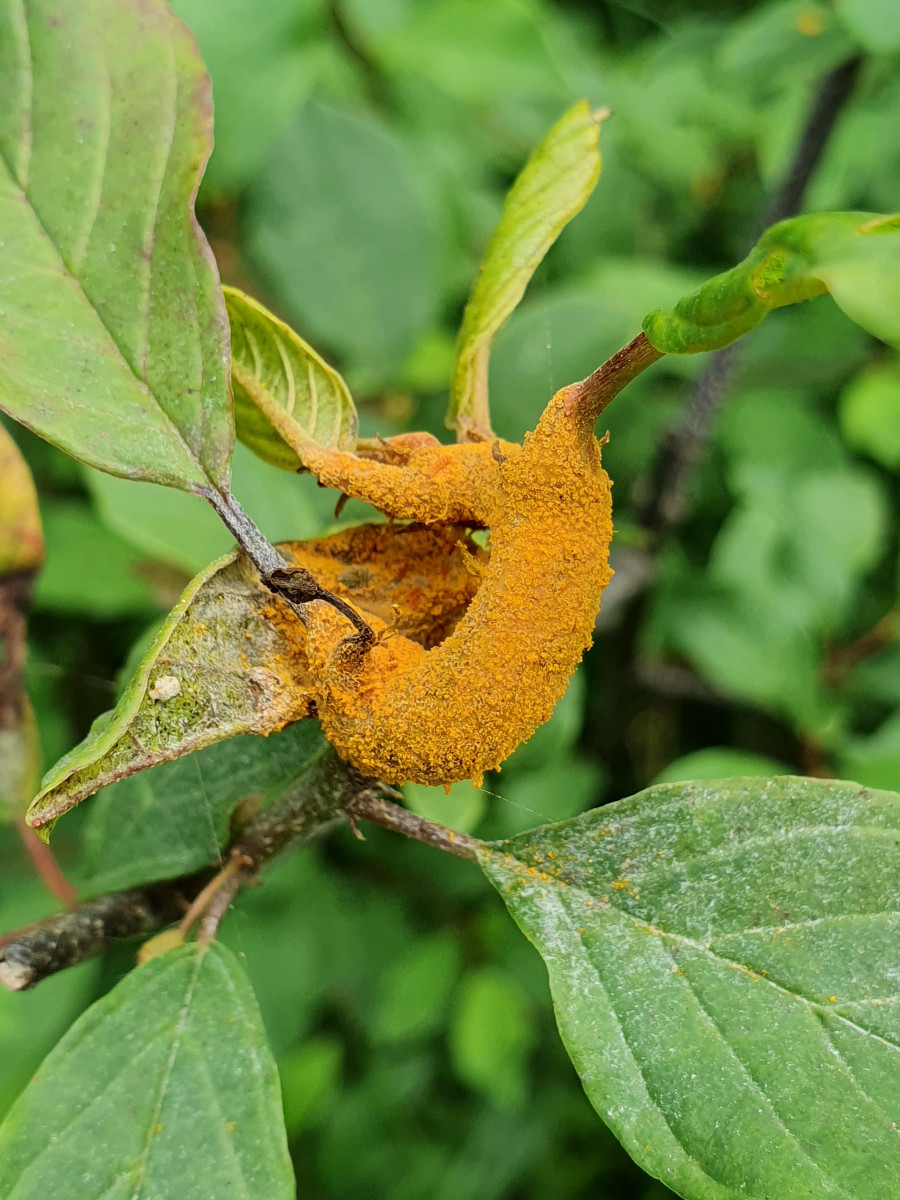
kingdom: Fungi
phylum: Basidiomycota
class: Pucciniomycetes
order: Pucciniales
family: Pucciniaceae
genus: Puccinia
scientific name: Puccinia coronata
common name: Crown rust
